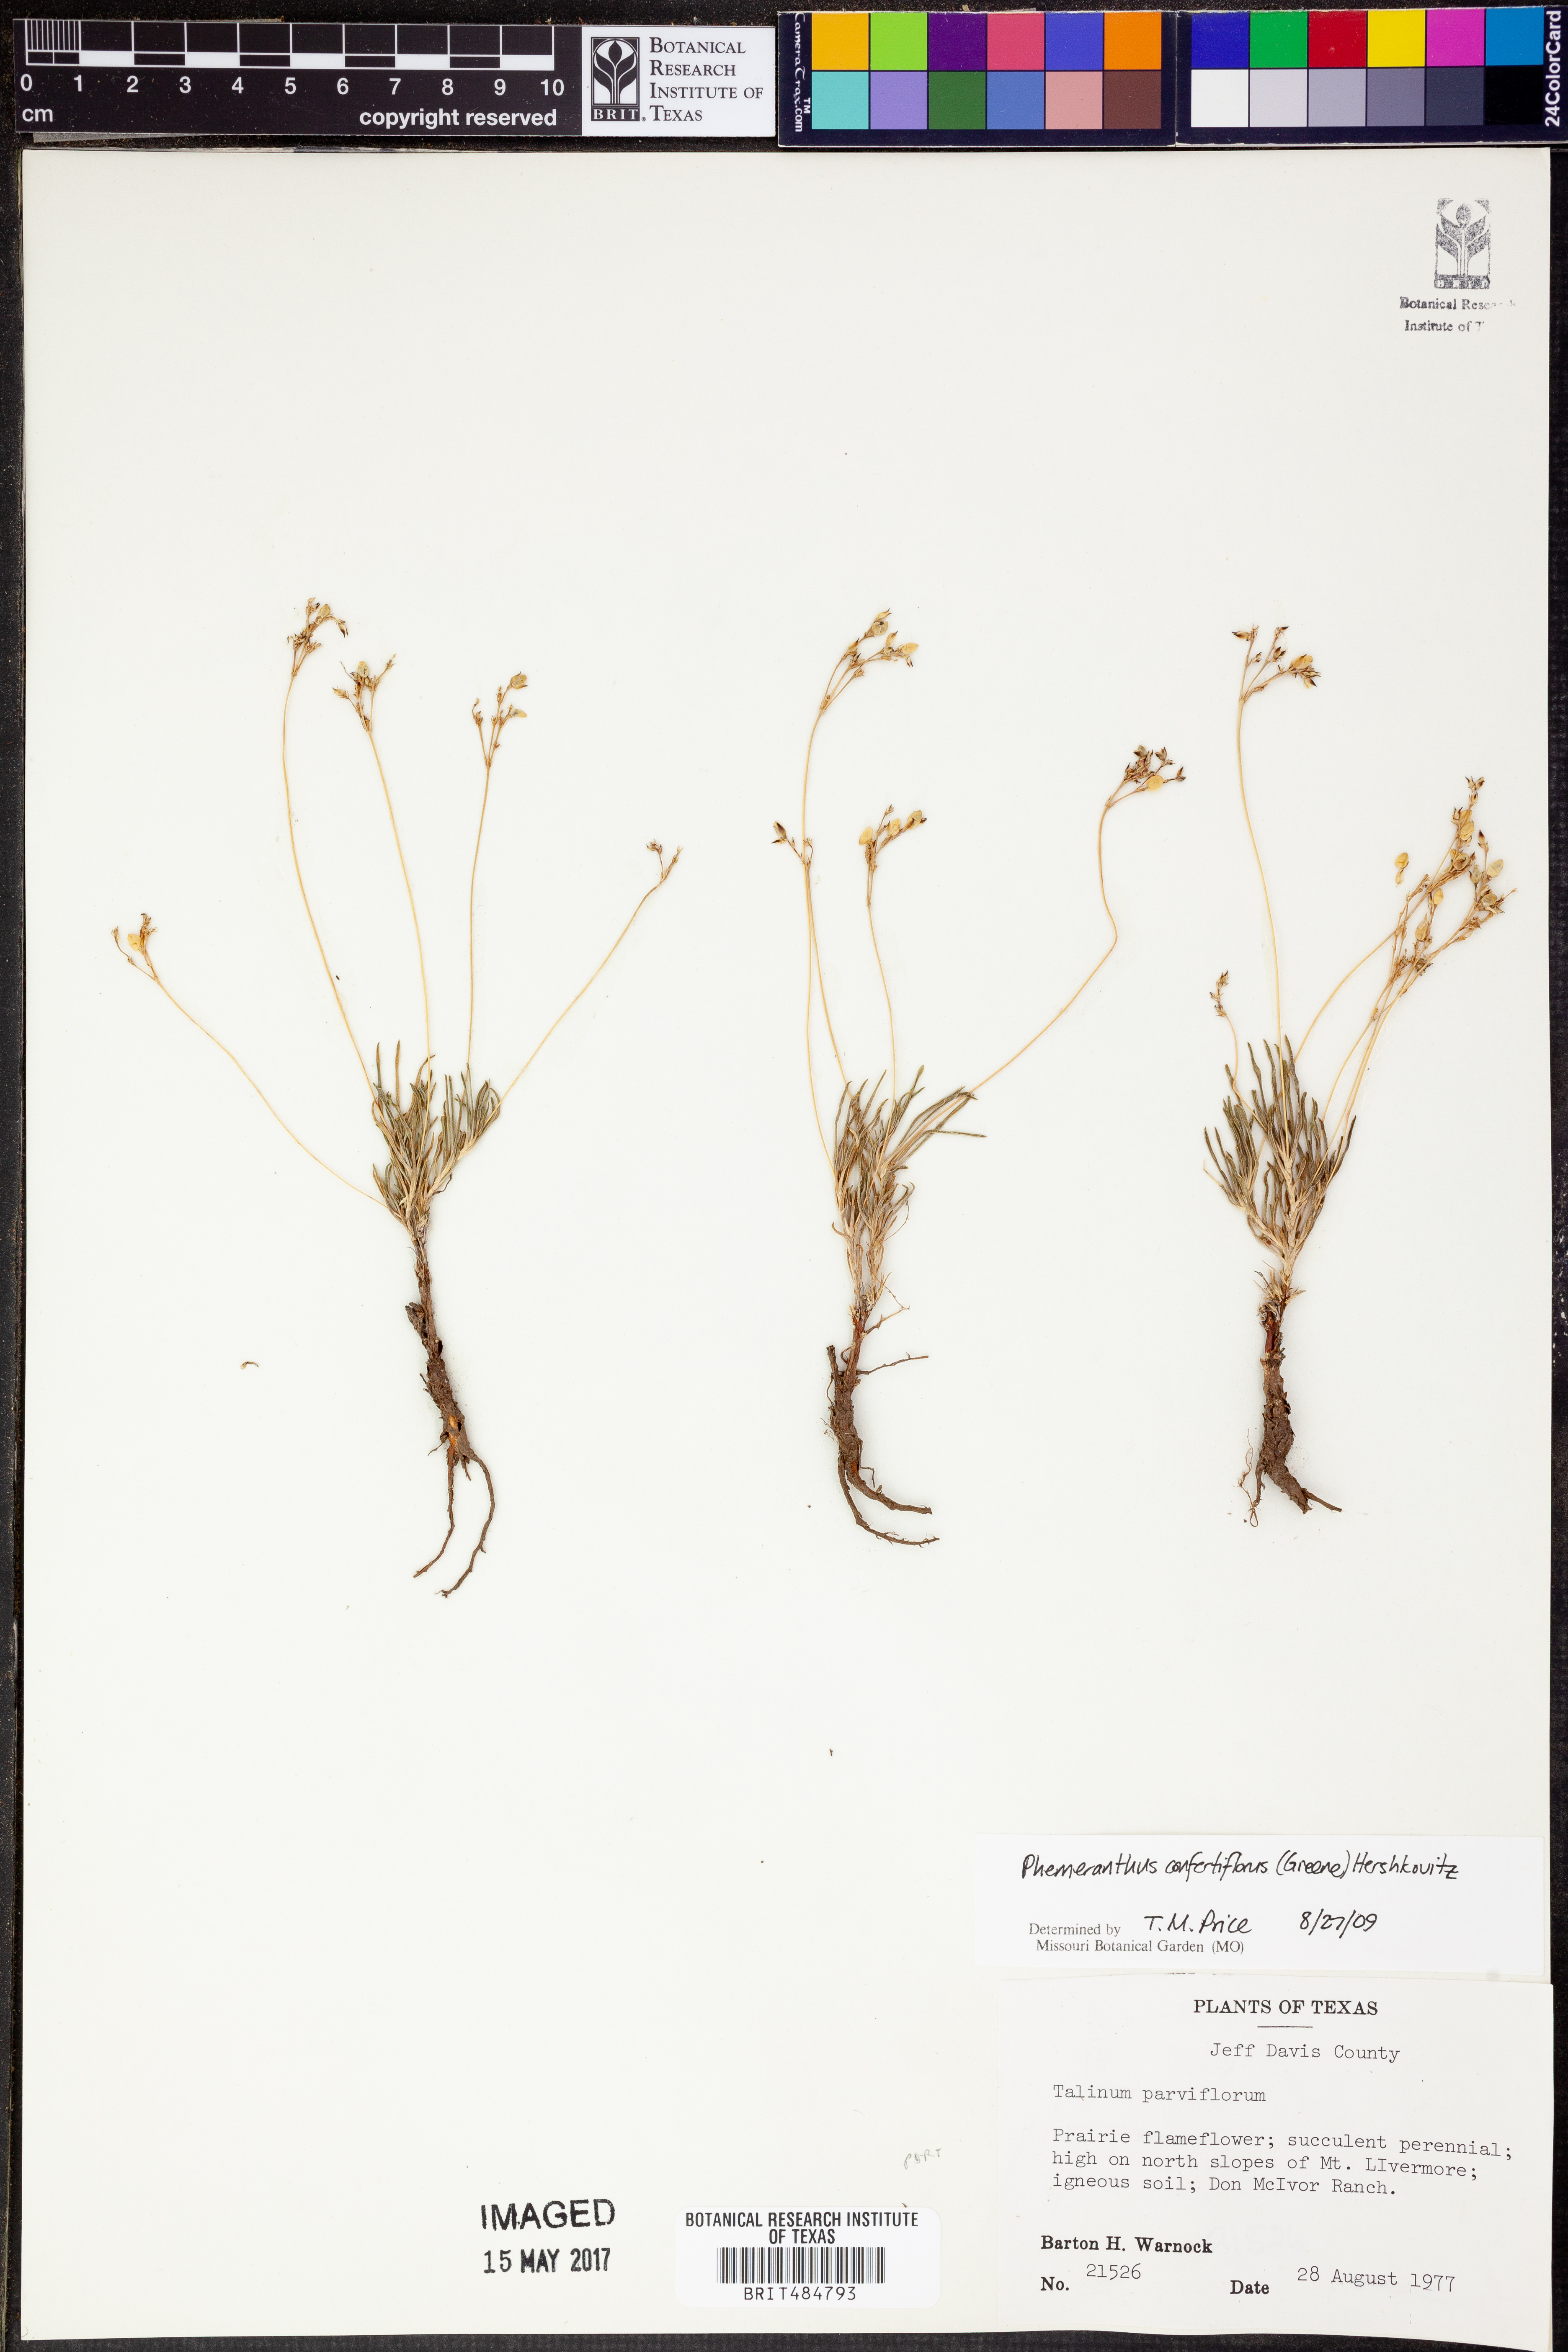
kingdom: Plantae
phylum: Tracheophyta
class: Magnoliopsida
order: Caryophyllales
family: Montiaceae
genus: Phemeranthus
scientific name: Phemeranthus confertiflorus
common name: New mexico fameflower
